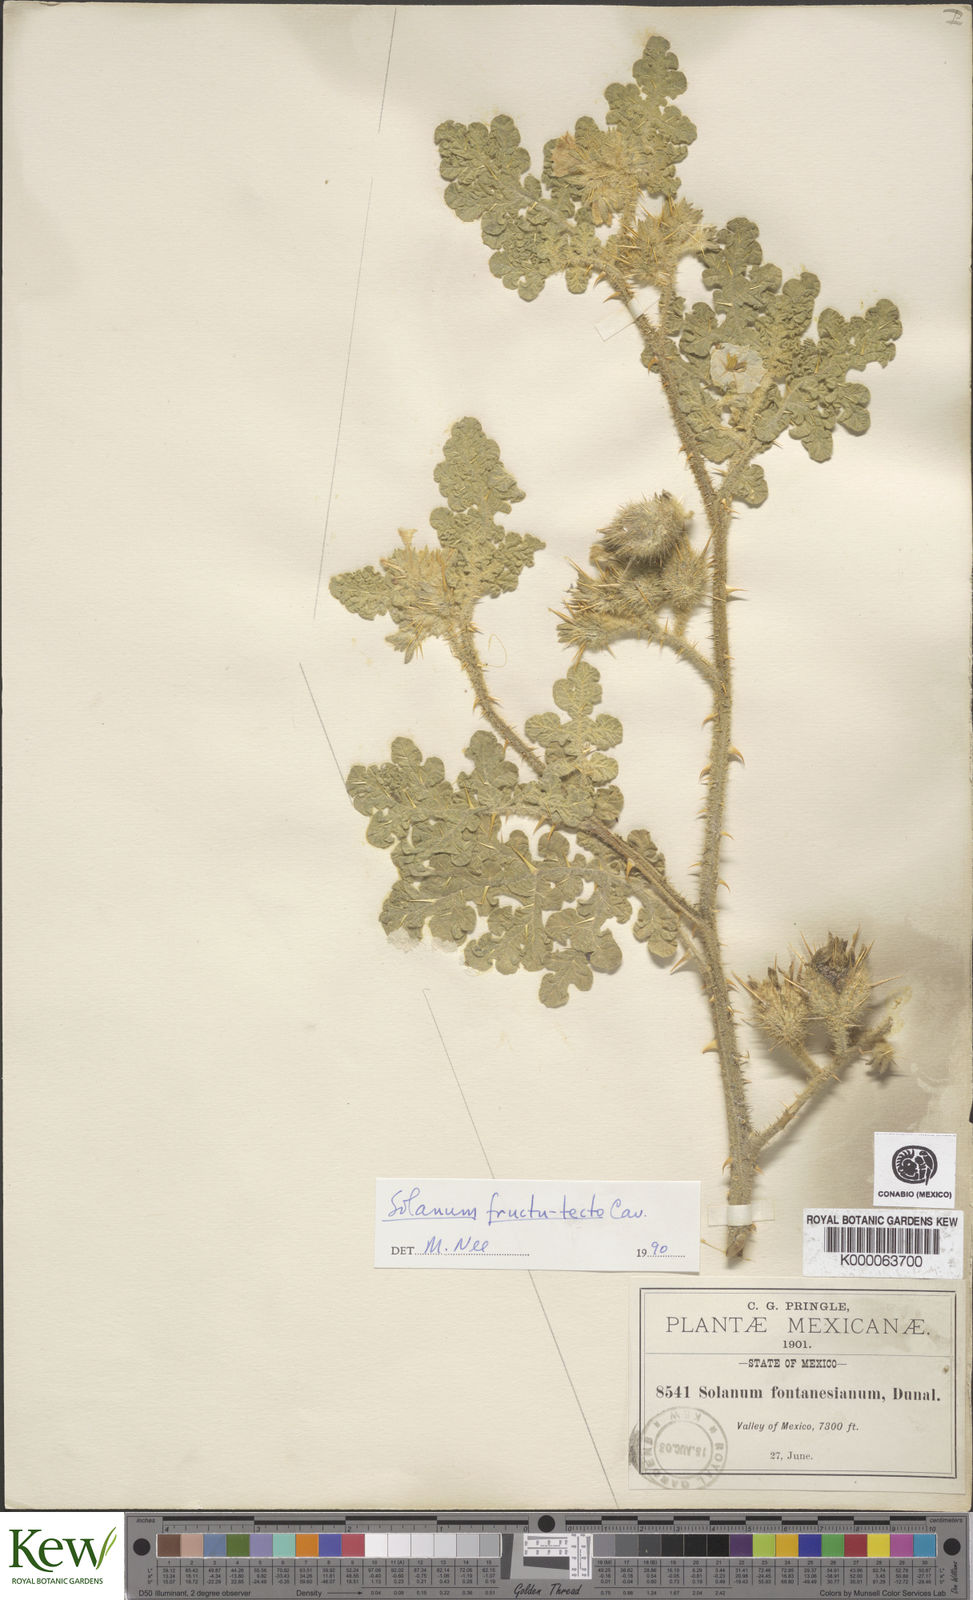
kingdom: Plantae
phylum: Tracheophyta
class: Magnoliopsida
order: Solanales
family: Solanaceae
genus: Solanum
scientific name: Solanum tectum
